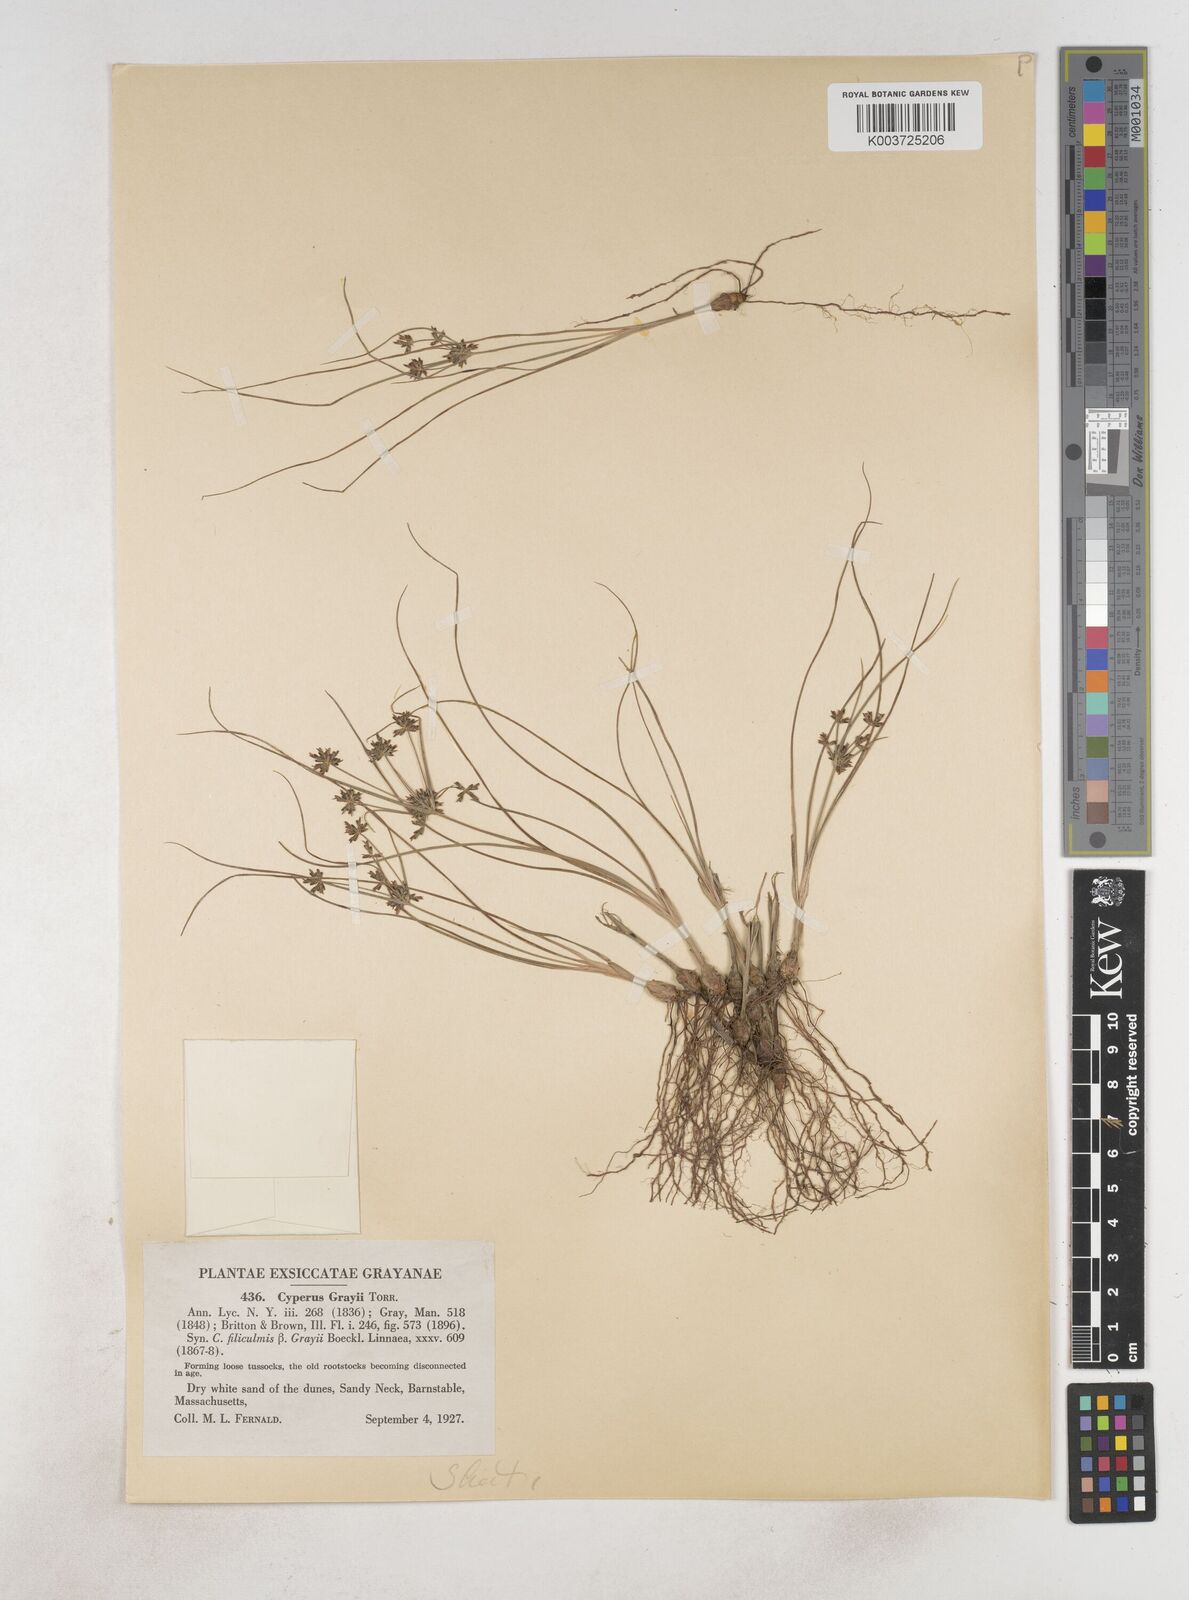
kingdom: Plantae
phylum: Tracheophyta
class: Liliopsida
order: Poales
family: Cyperaceae
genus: Cyperus
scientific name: Cyperus grayi
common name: Gray's flat sedge
